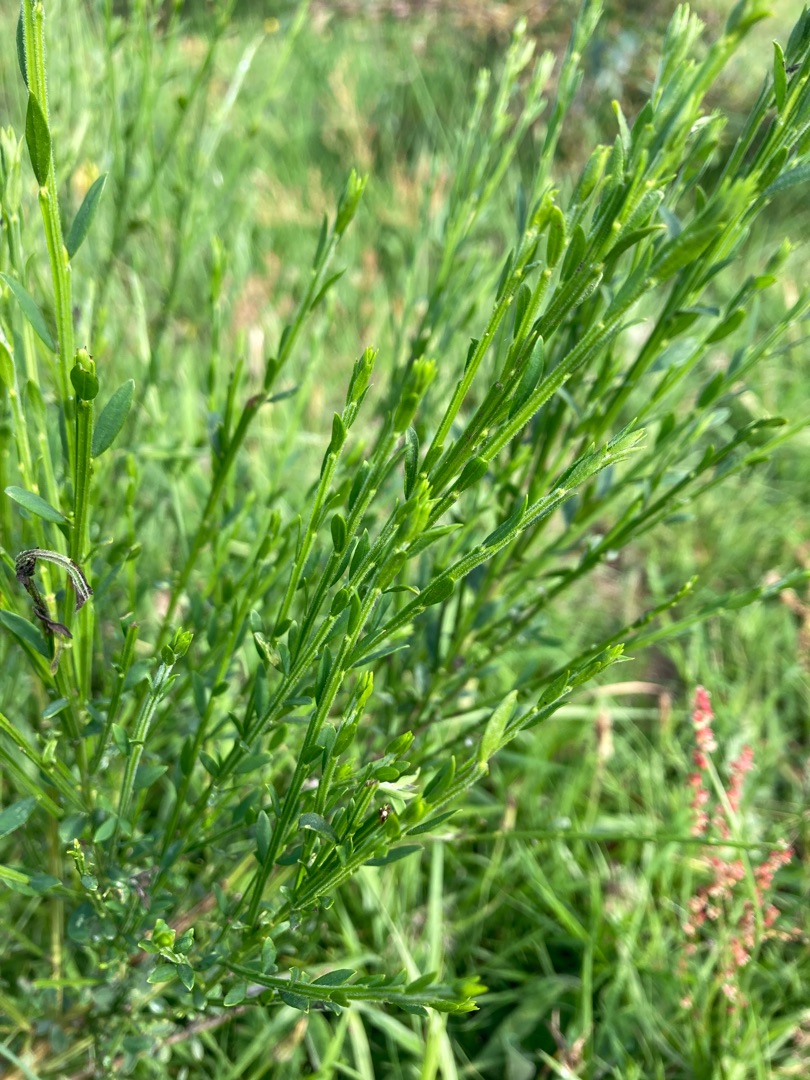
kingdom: Plantae
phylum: Tracheophyta
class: Magnoliopsida
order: Fabales
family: Fabaceae
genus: Cytisus
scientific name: Cytisus scoparius
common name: Almindelig gyvel
